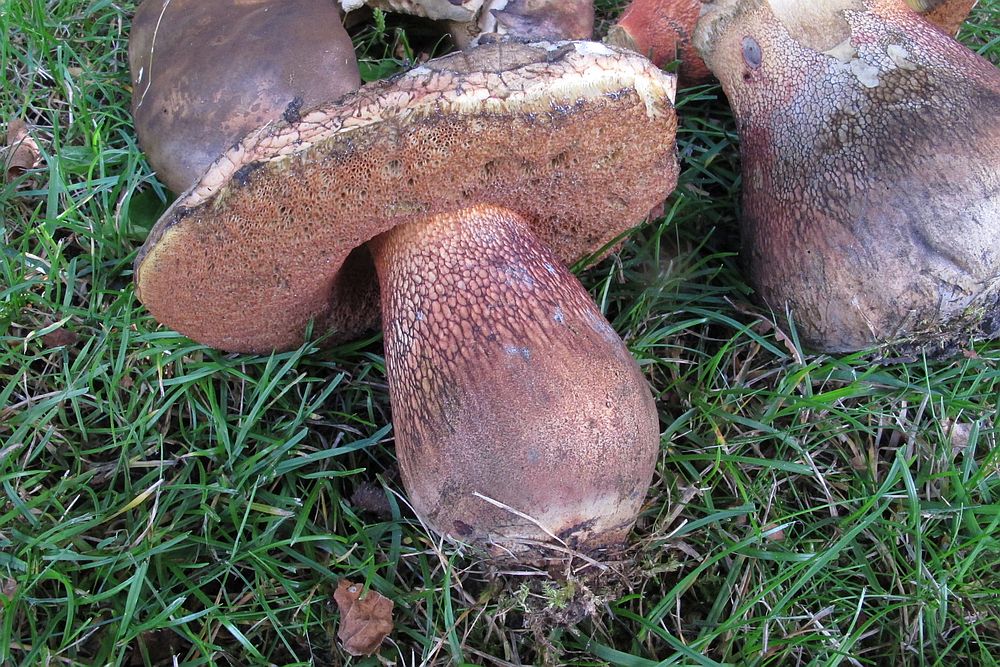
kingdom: Fungi
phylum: Basidiomycota
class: Agaricomycetes
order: Boletales
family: Boletaceae
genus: Suillellus
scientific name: Suillellus luridus
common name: netstokket indigorørhat
